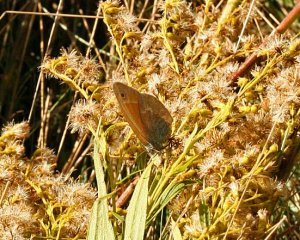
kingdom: Animalia
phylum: Arthropoda
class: Insecta
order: Lepidoptera
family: Nymphalidae
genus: Coenonympha
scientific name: Coenonympha tullia
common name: Large Heath
